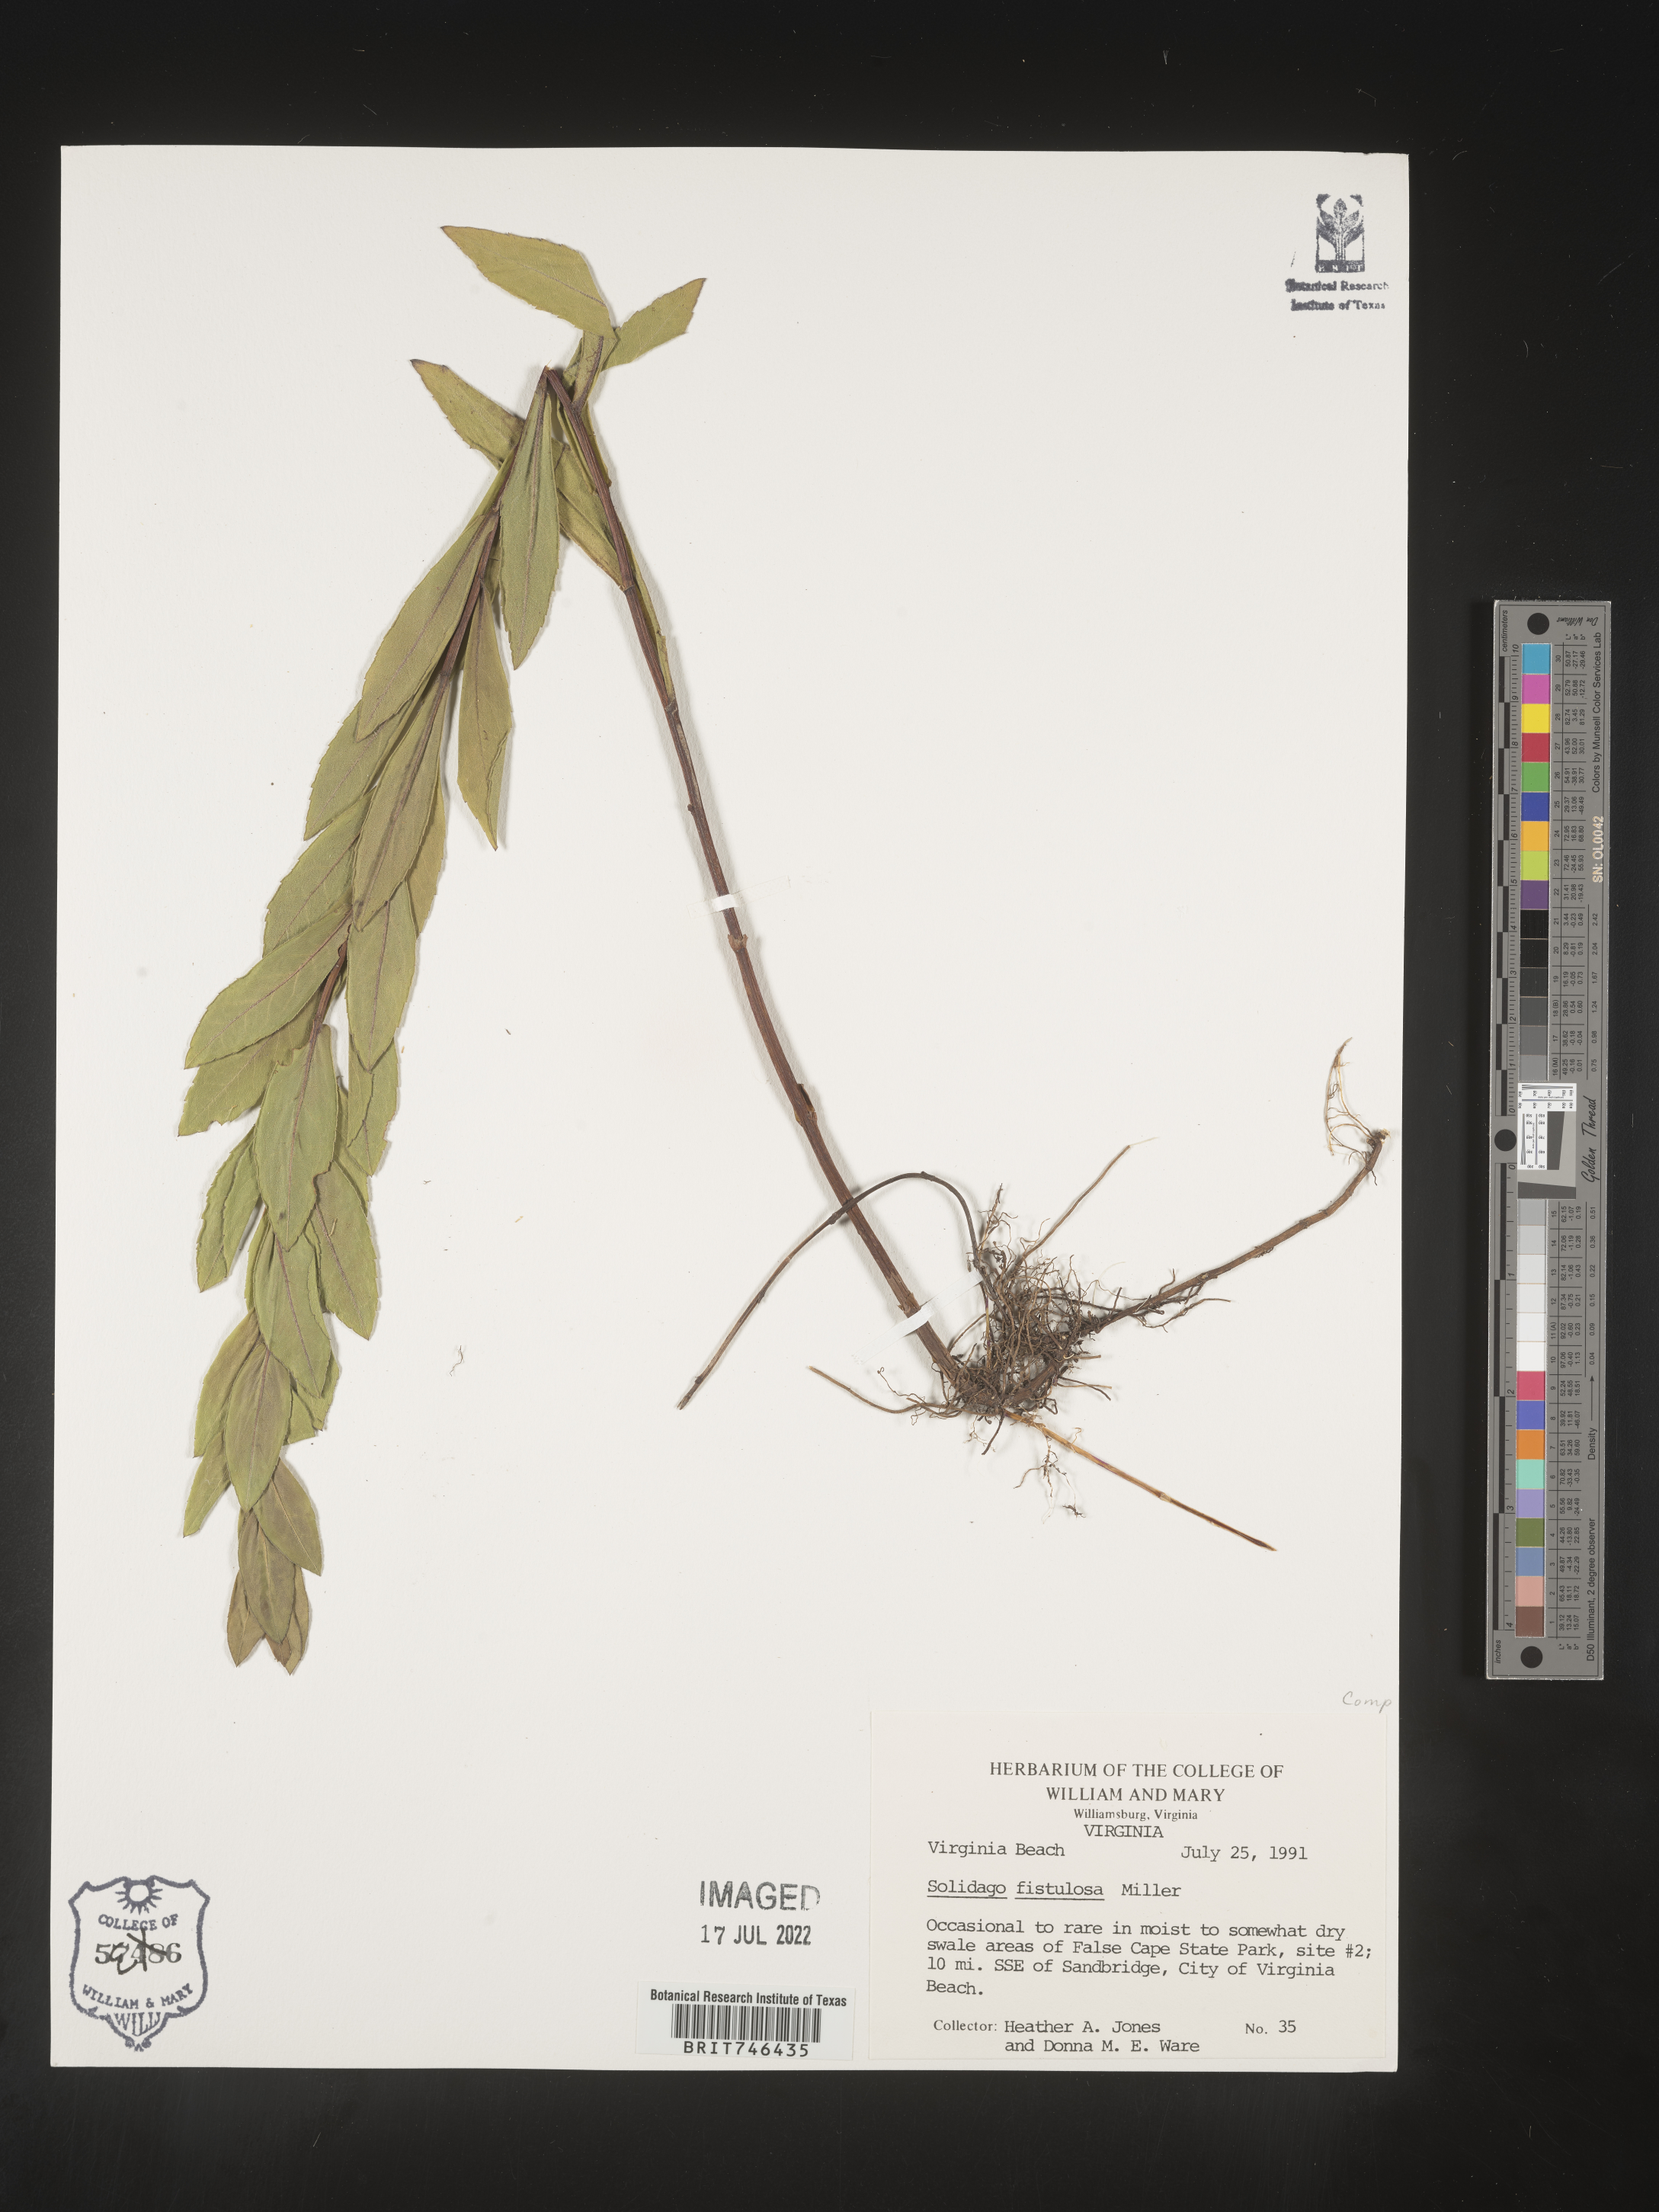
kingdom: Plantae
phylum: Tracheophyta
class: Magnoliopsida
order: Asterales
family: Asteraceae
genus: Solidago
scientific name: Solidago fistulosa
